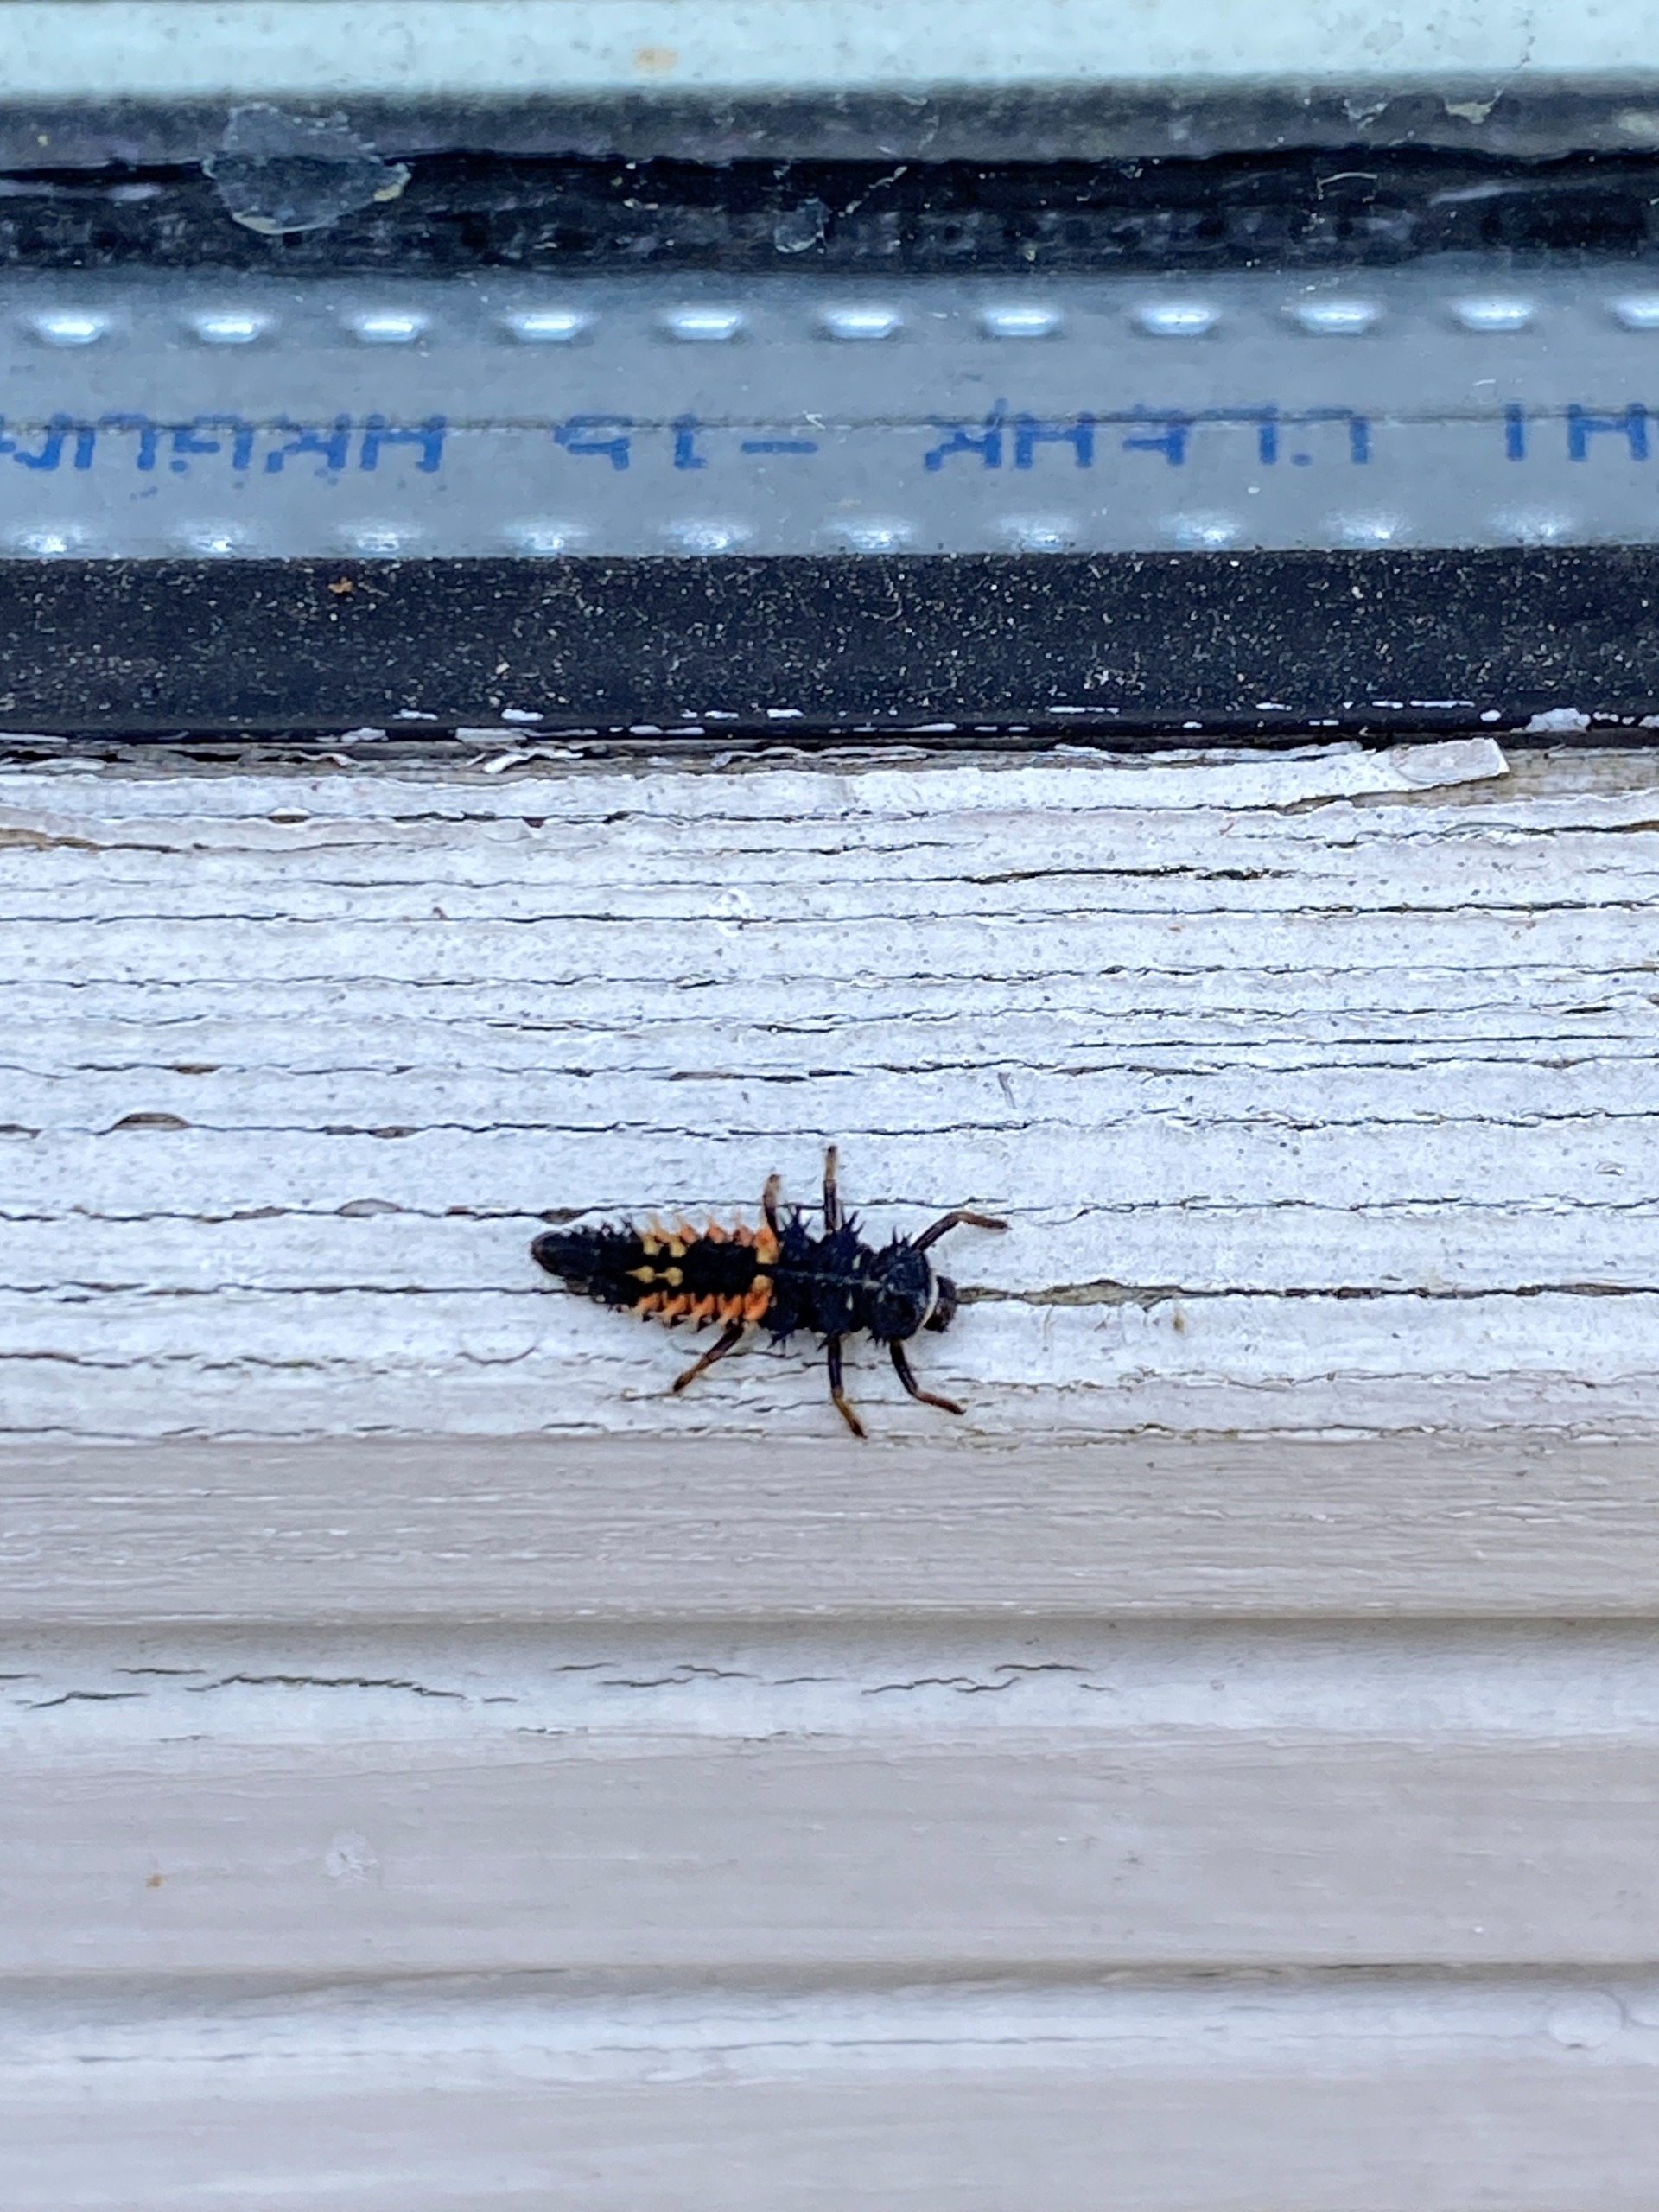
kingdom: Animalia
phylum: Arthropoda
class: Insecta
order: Coleoptera
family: Coccinellidae
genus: Harmonia
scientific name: Harmonia axyridis
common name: Harlekinmariehøne
